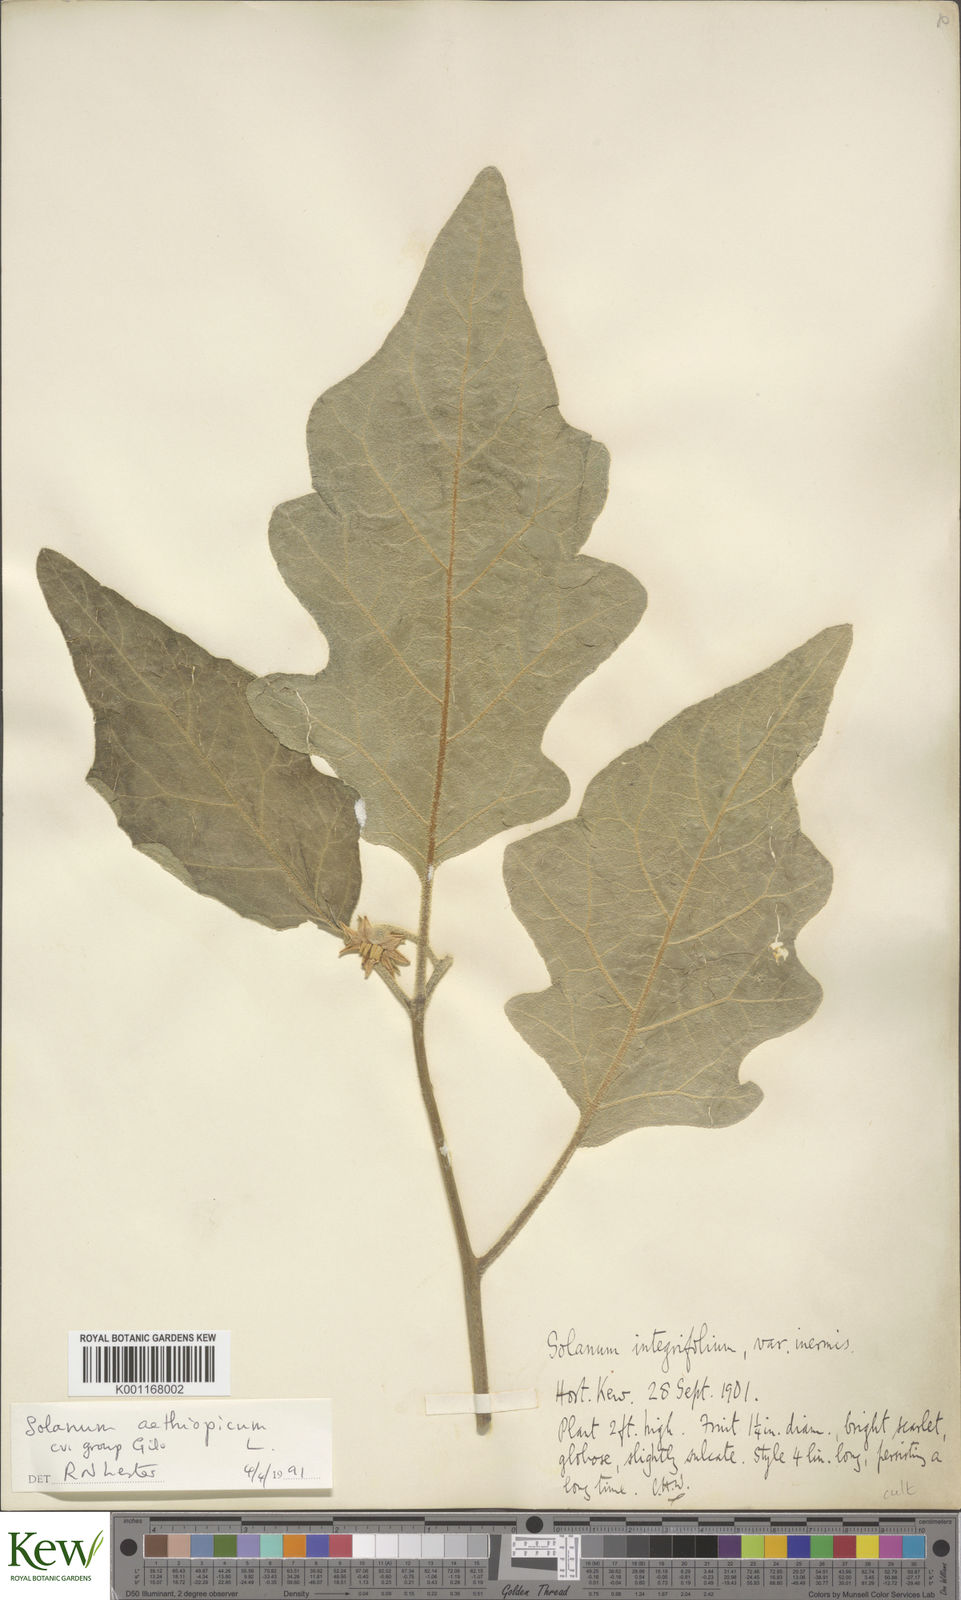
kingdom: Plantae
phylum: Tracheophyta
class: Magnoliopsida
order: Solanales
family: Solanaceae
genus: Solanum
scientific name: Solanum aethiopicum
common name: Gilo
